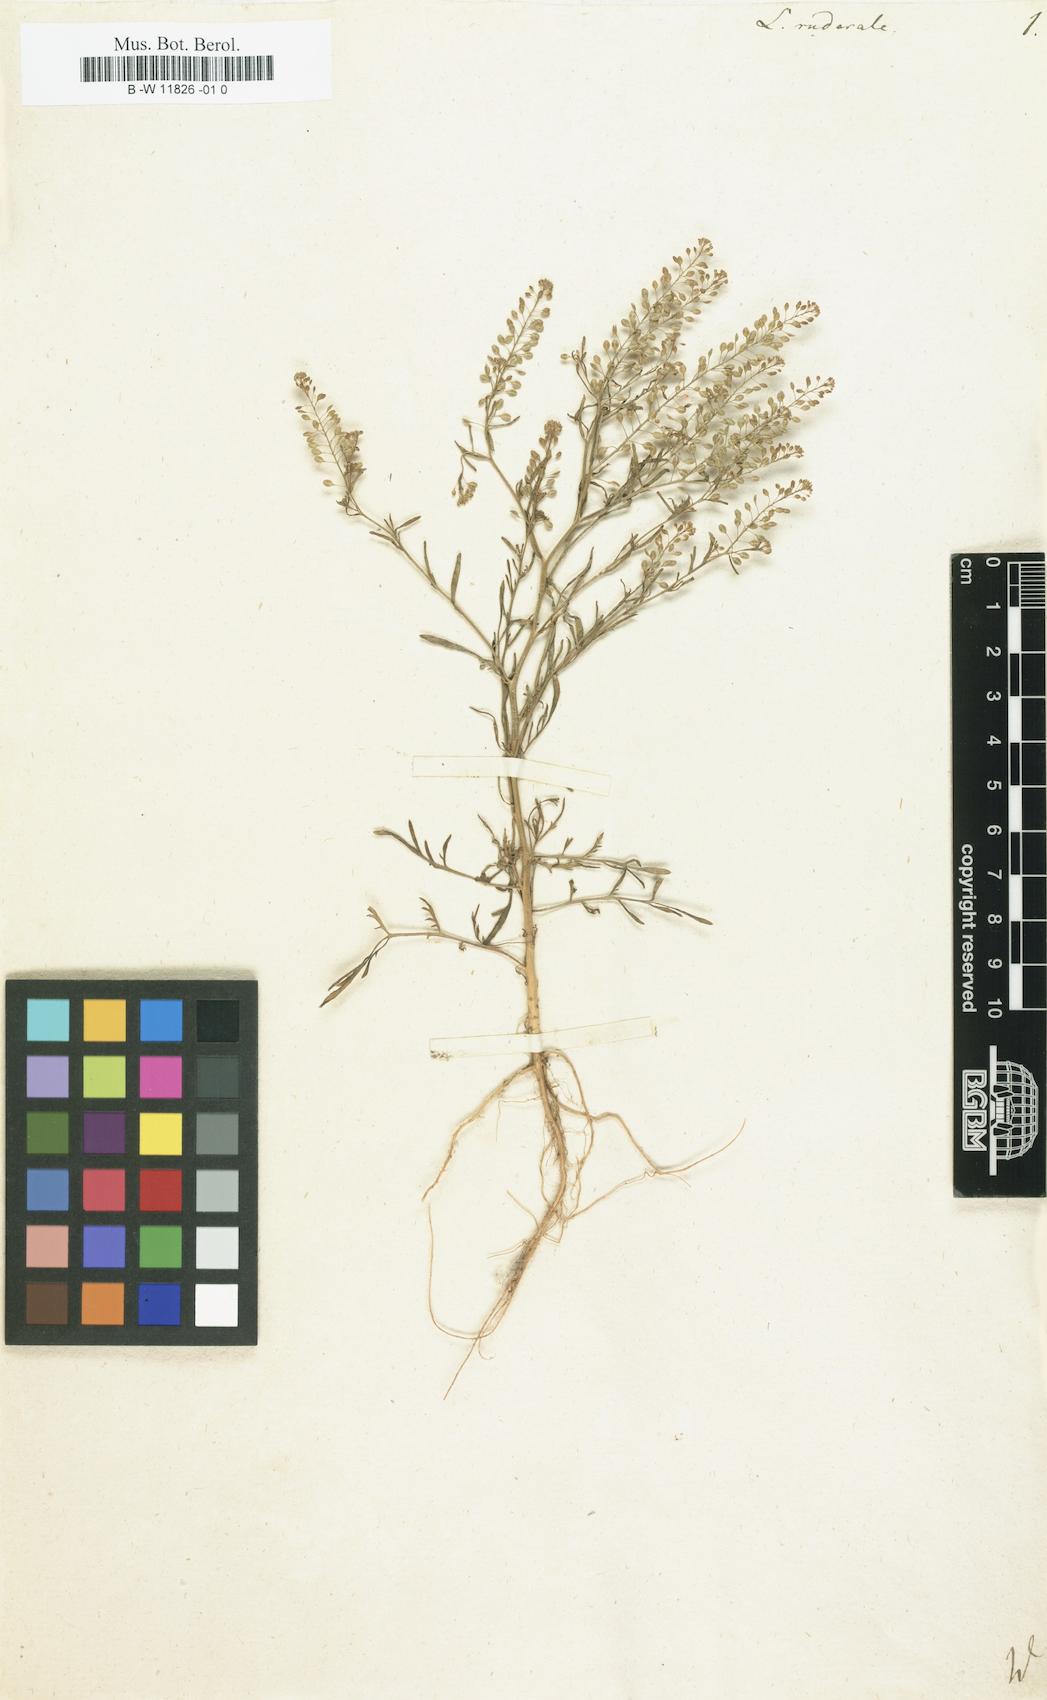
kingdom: Plantae
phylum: Tracheophyta
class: Magnoliopsida
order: Brassicales
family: Brassicaceae
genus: Lepidium
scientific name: Lepidium ruderale
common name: Narrow-leaved pepperwort
